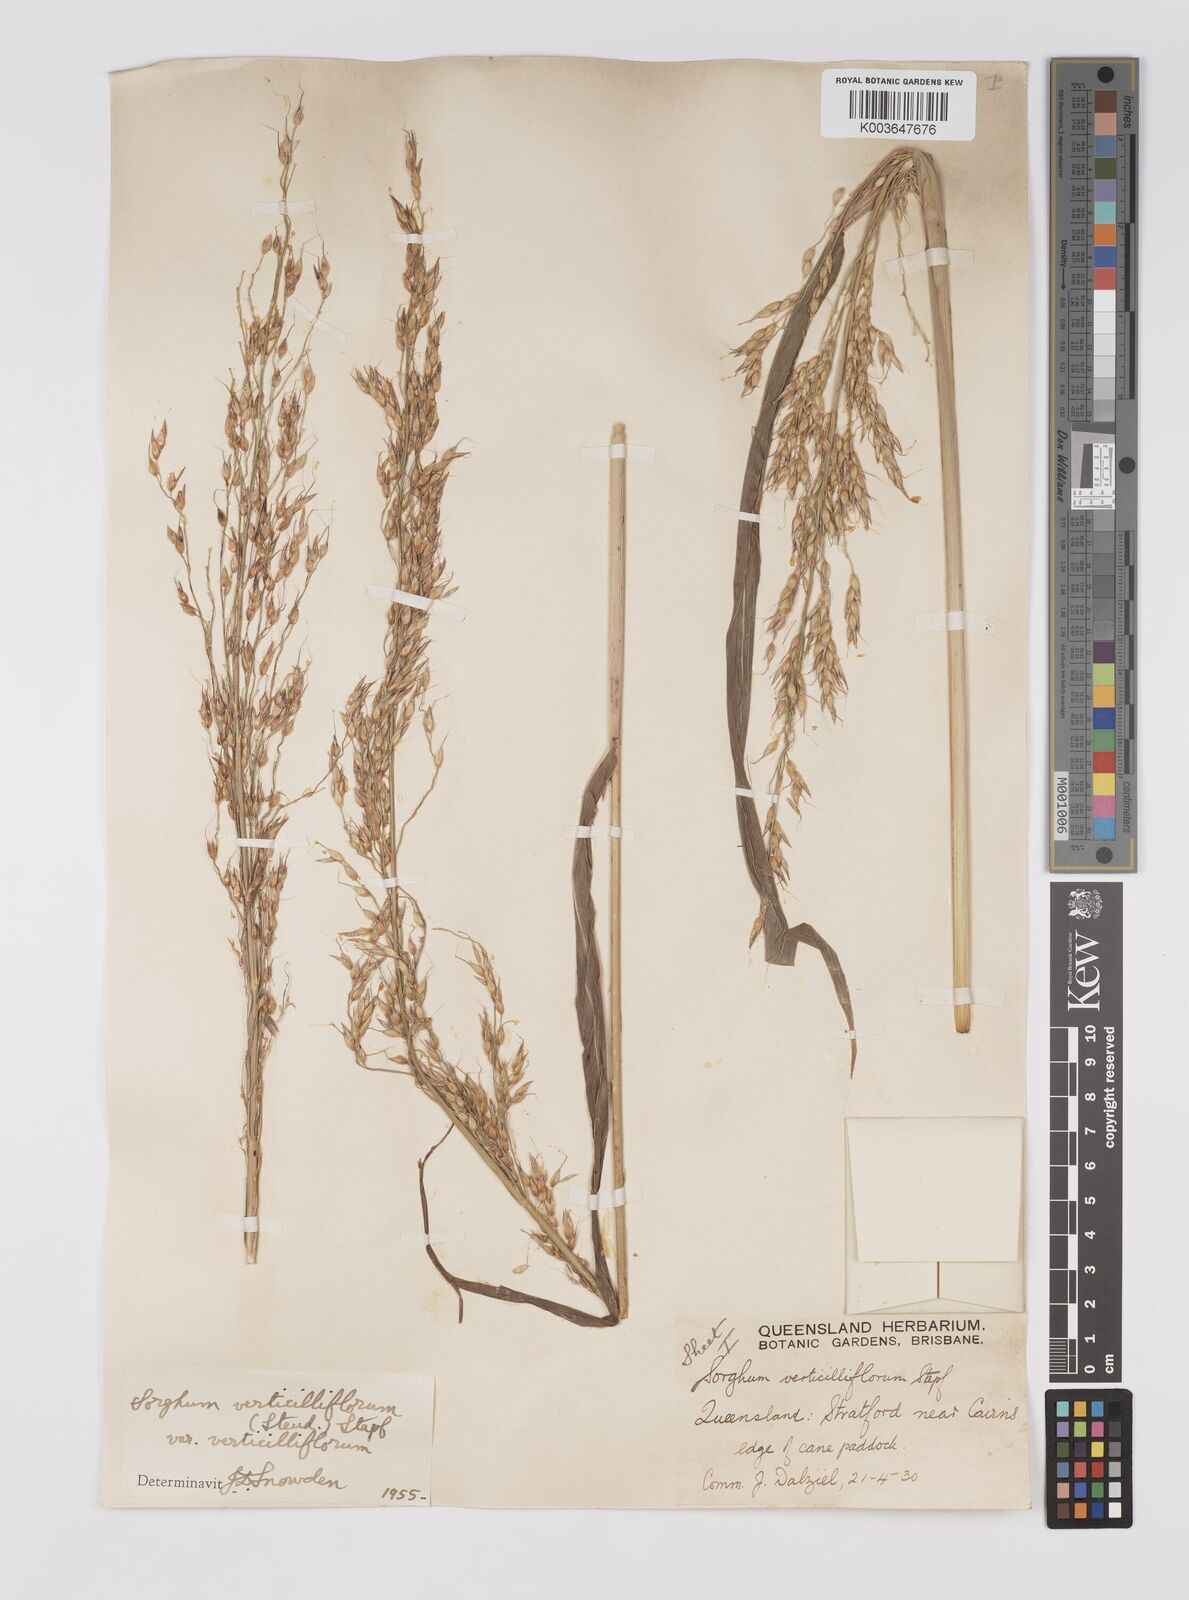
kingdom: Plantae
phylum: Tracheophyta
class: Liliopsida
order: Poales
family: Poaceae
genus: Sorghum
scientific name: Sorghum arundinaceum
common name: Sorghum
